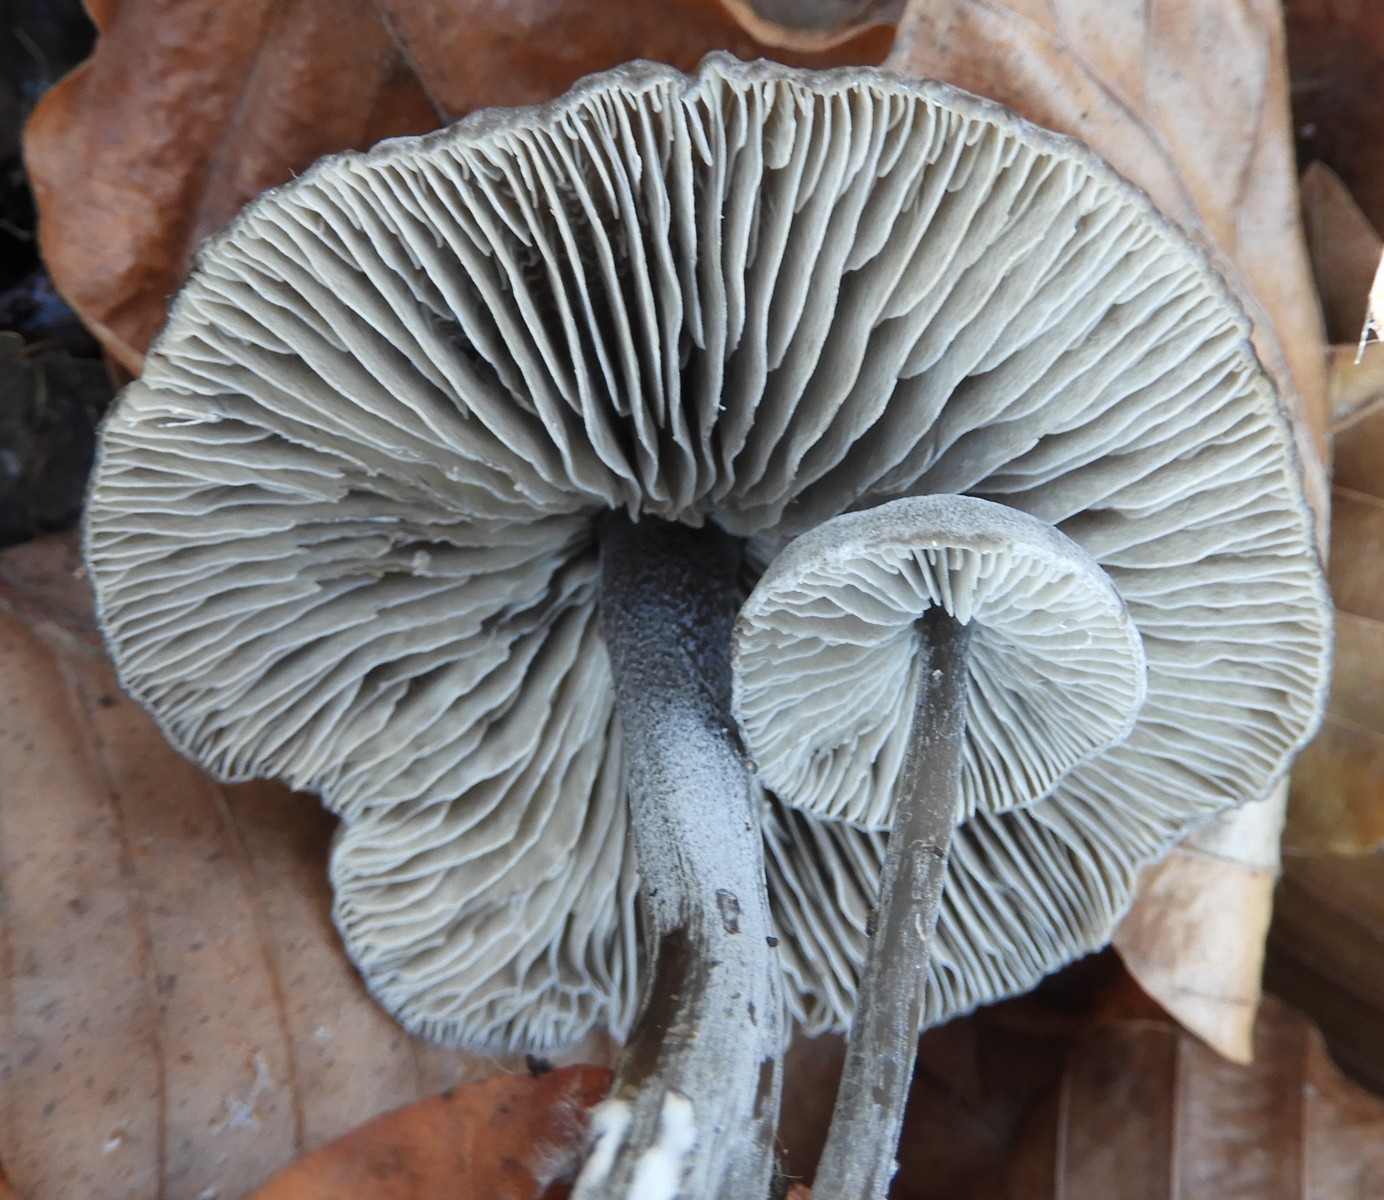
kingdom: Fungi
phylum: Basidiomycota
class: Agaricomycetes
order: Agaricales
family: Lyophyllaceae
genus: Tephrocybe
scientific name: Tephrocybe rancida
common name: mel-gråblad
